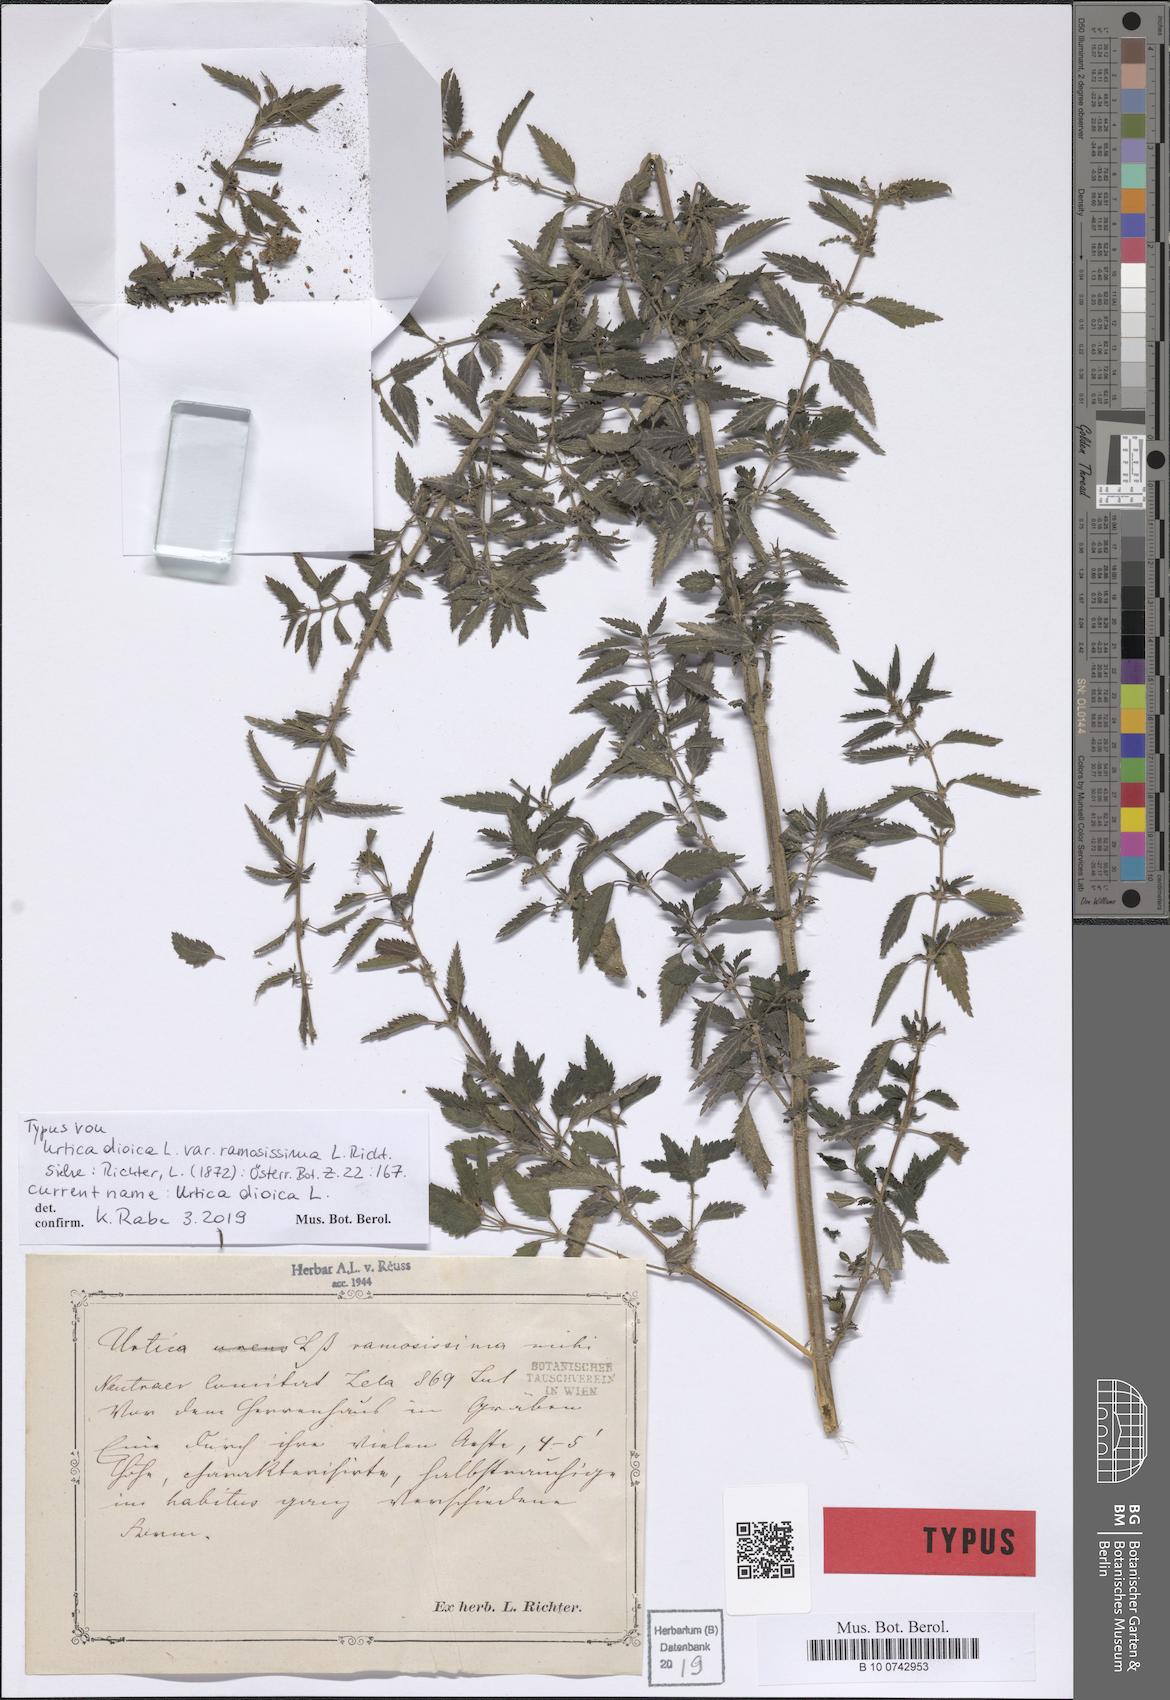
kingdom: Plantae
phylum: Tracheophyta
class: Magnoliopsida
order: Rosales
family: Urticaceae
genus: Urtica
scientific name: Urtica dioica
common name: Common nettle
